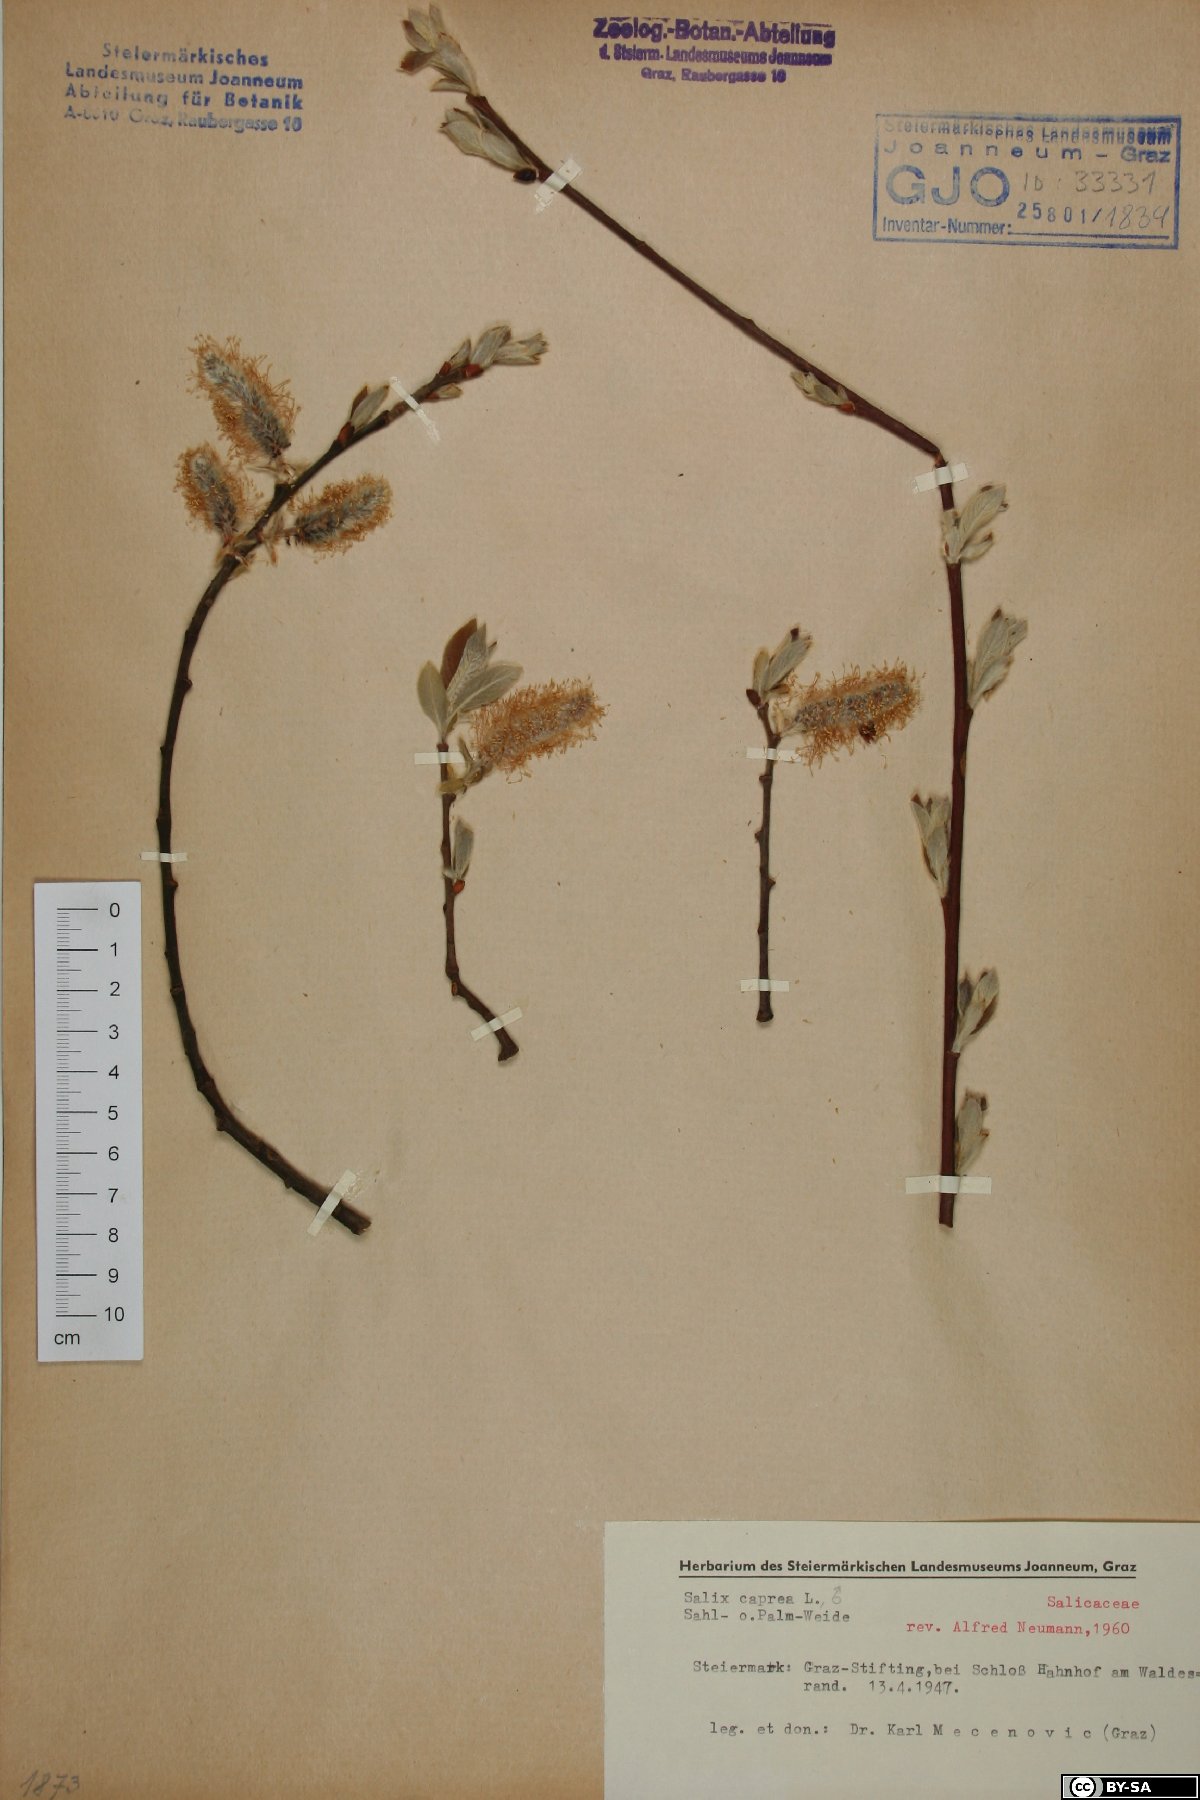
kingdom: Plantae
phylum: Tracheophyta
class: Magnoliopsida
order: Malpighiales
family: Salicaceae
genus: Salix
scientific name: Salix caprea
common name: Goat willow
